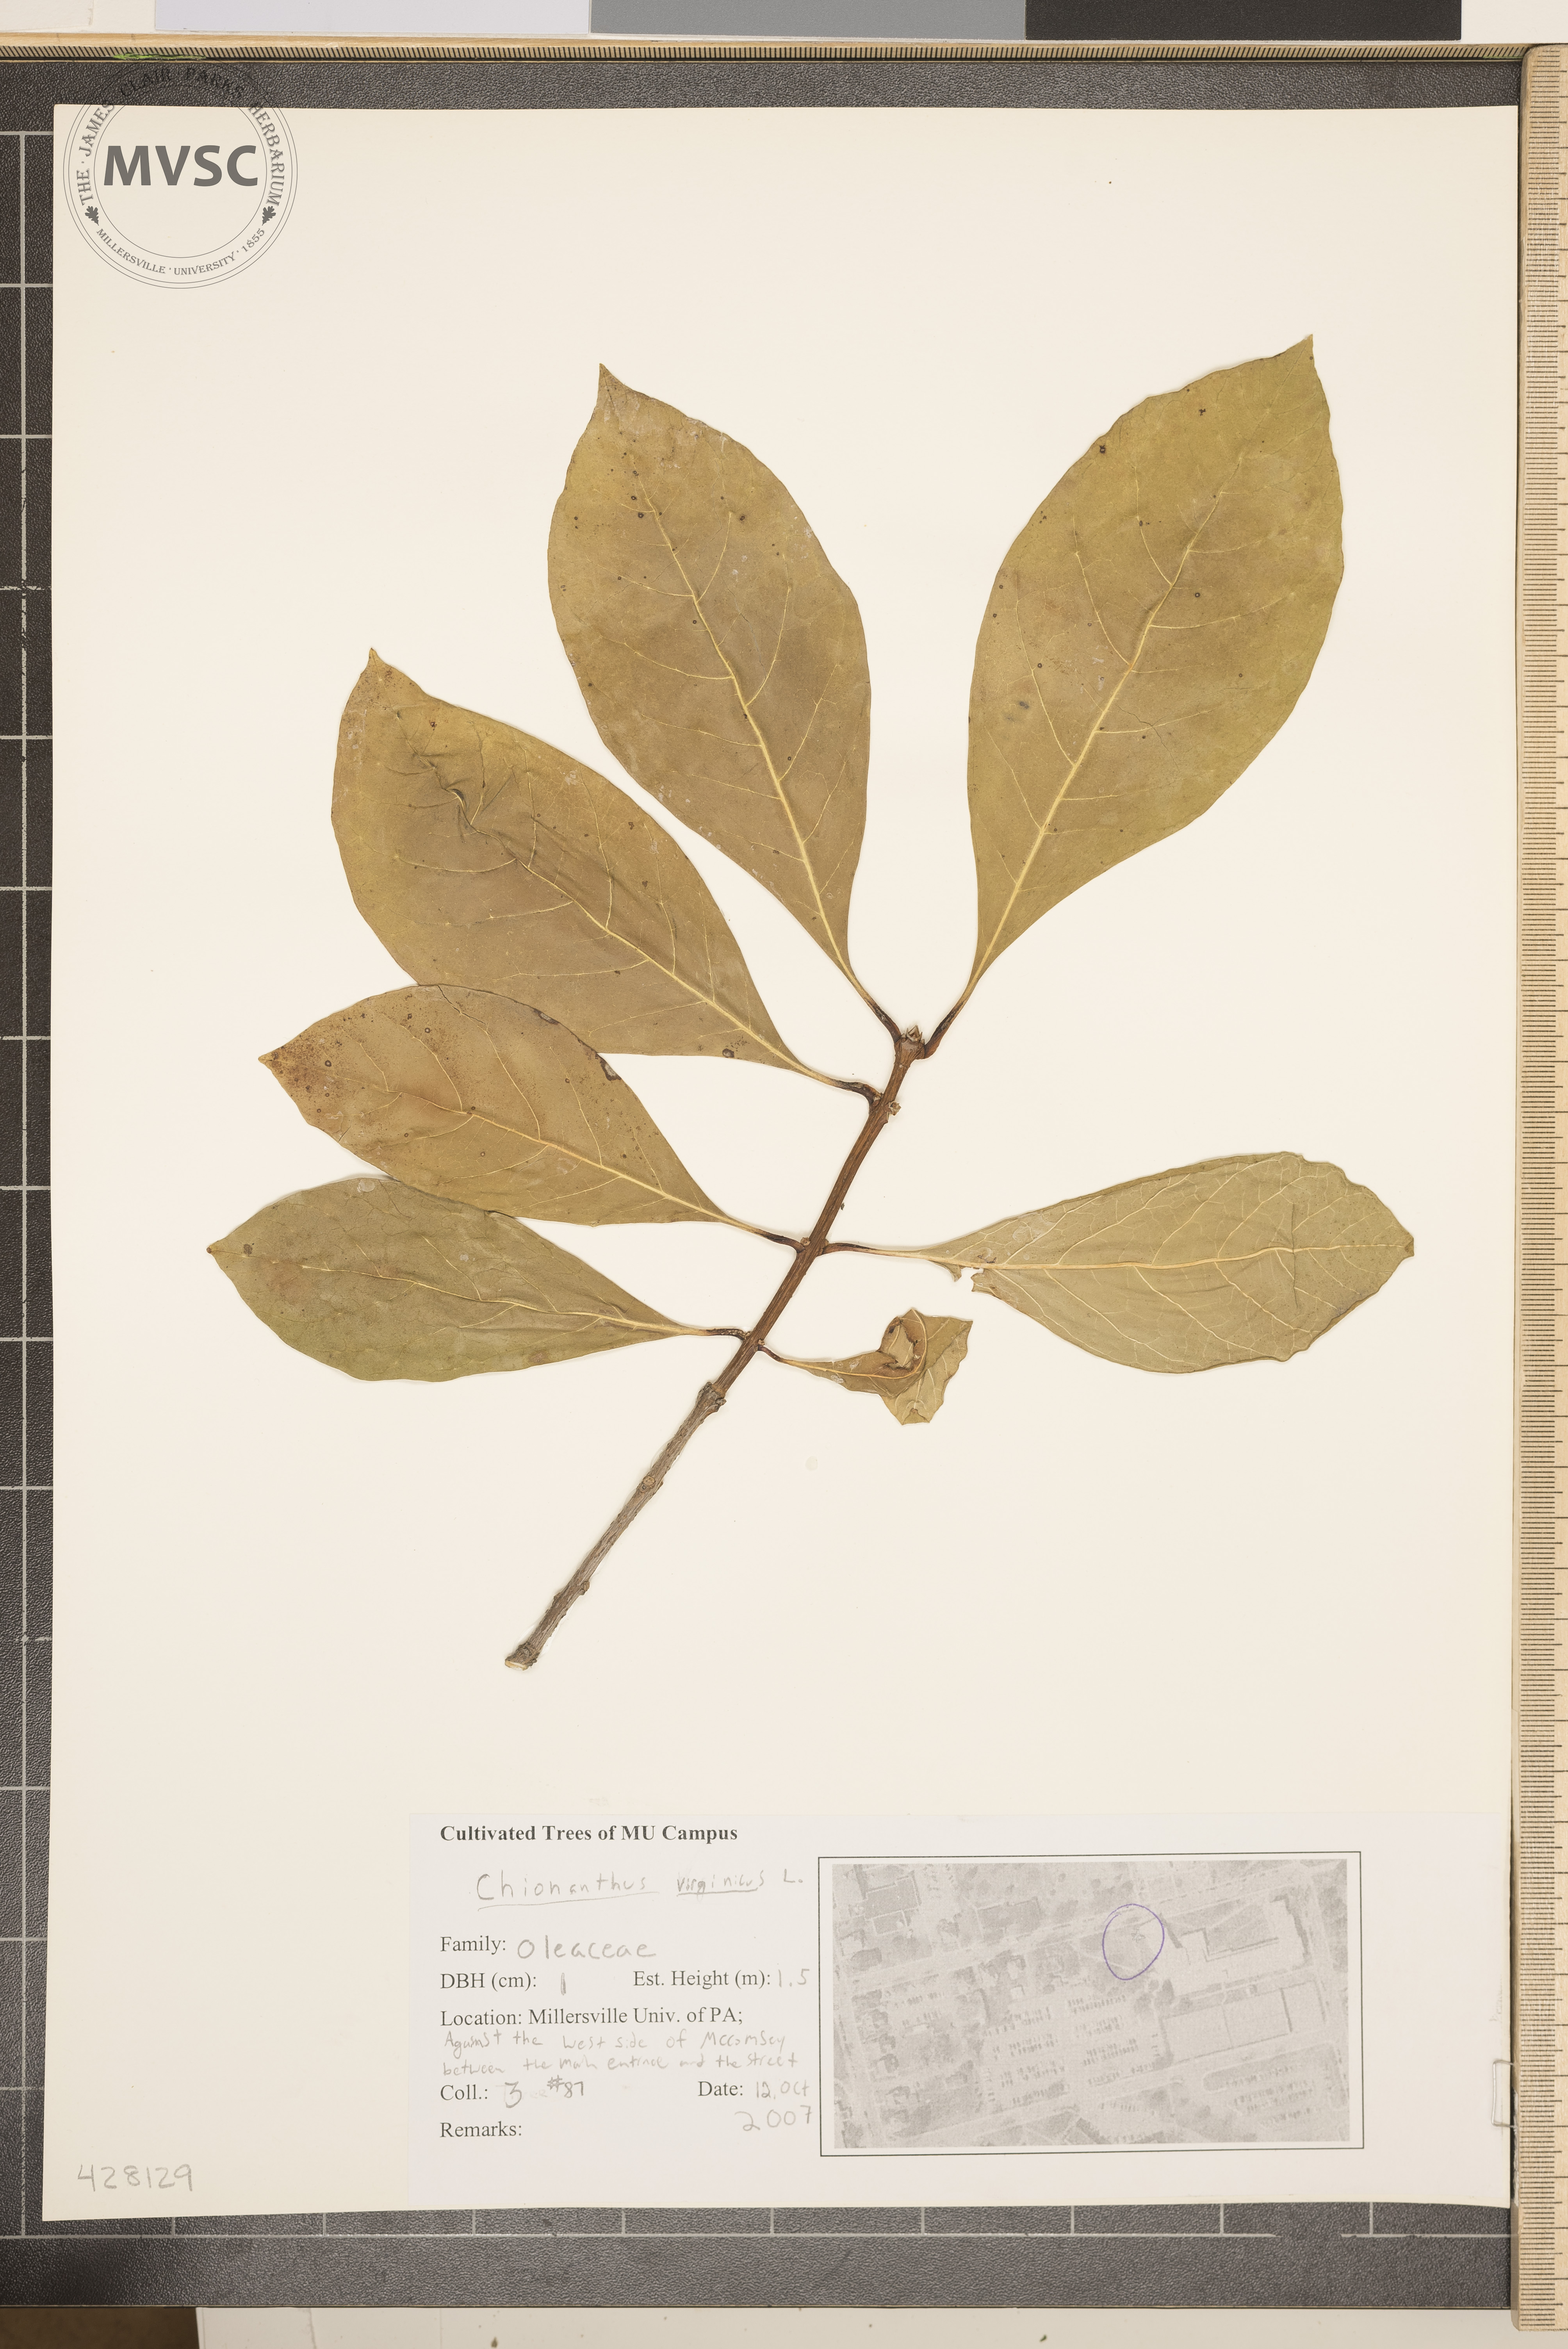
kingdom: Plantae
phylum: Tracheophyta
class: Magnoliopsida
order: Lamiales
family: Oleaceae
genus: Chionanthus
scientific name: Chionanthus virginicus
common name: Fringetree
